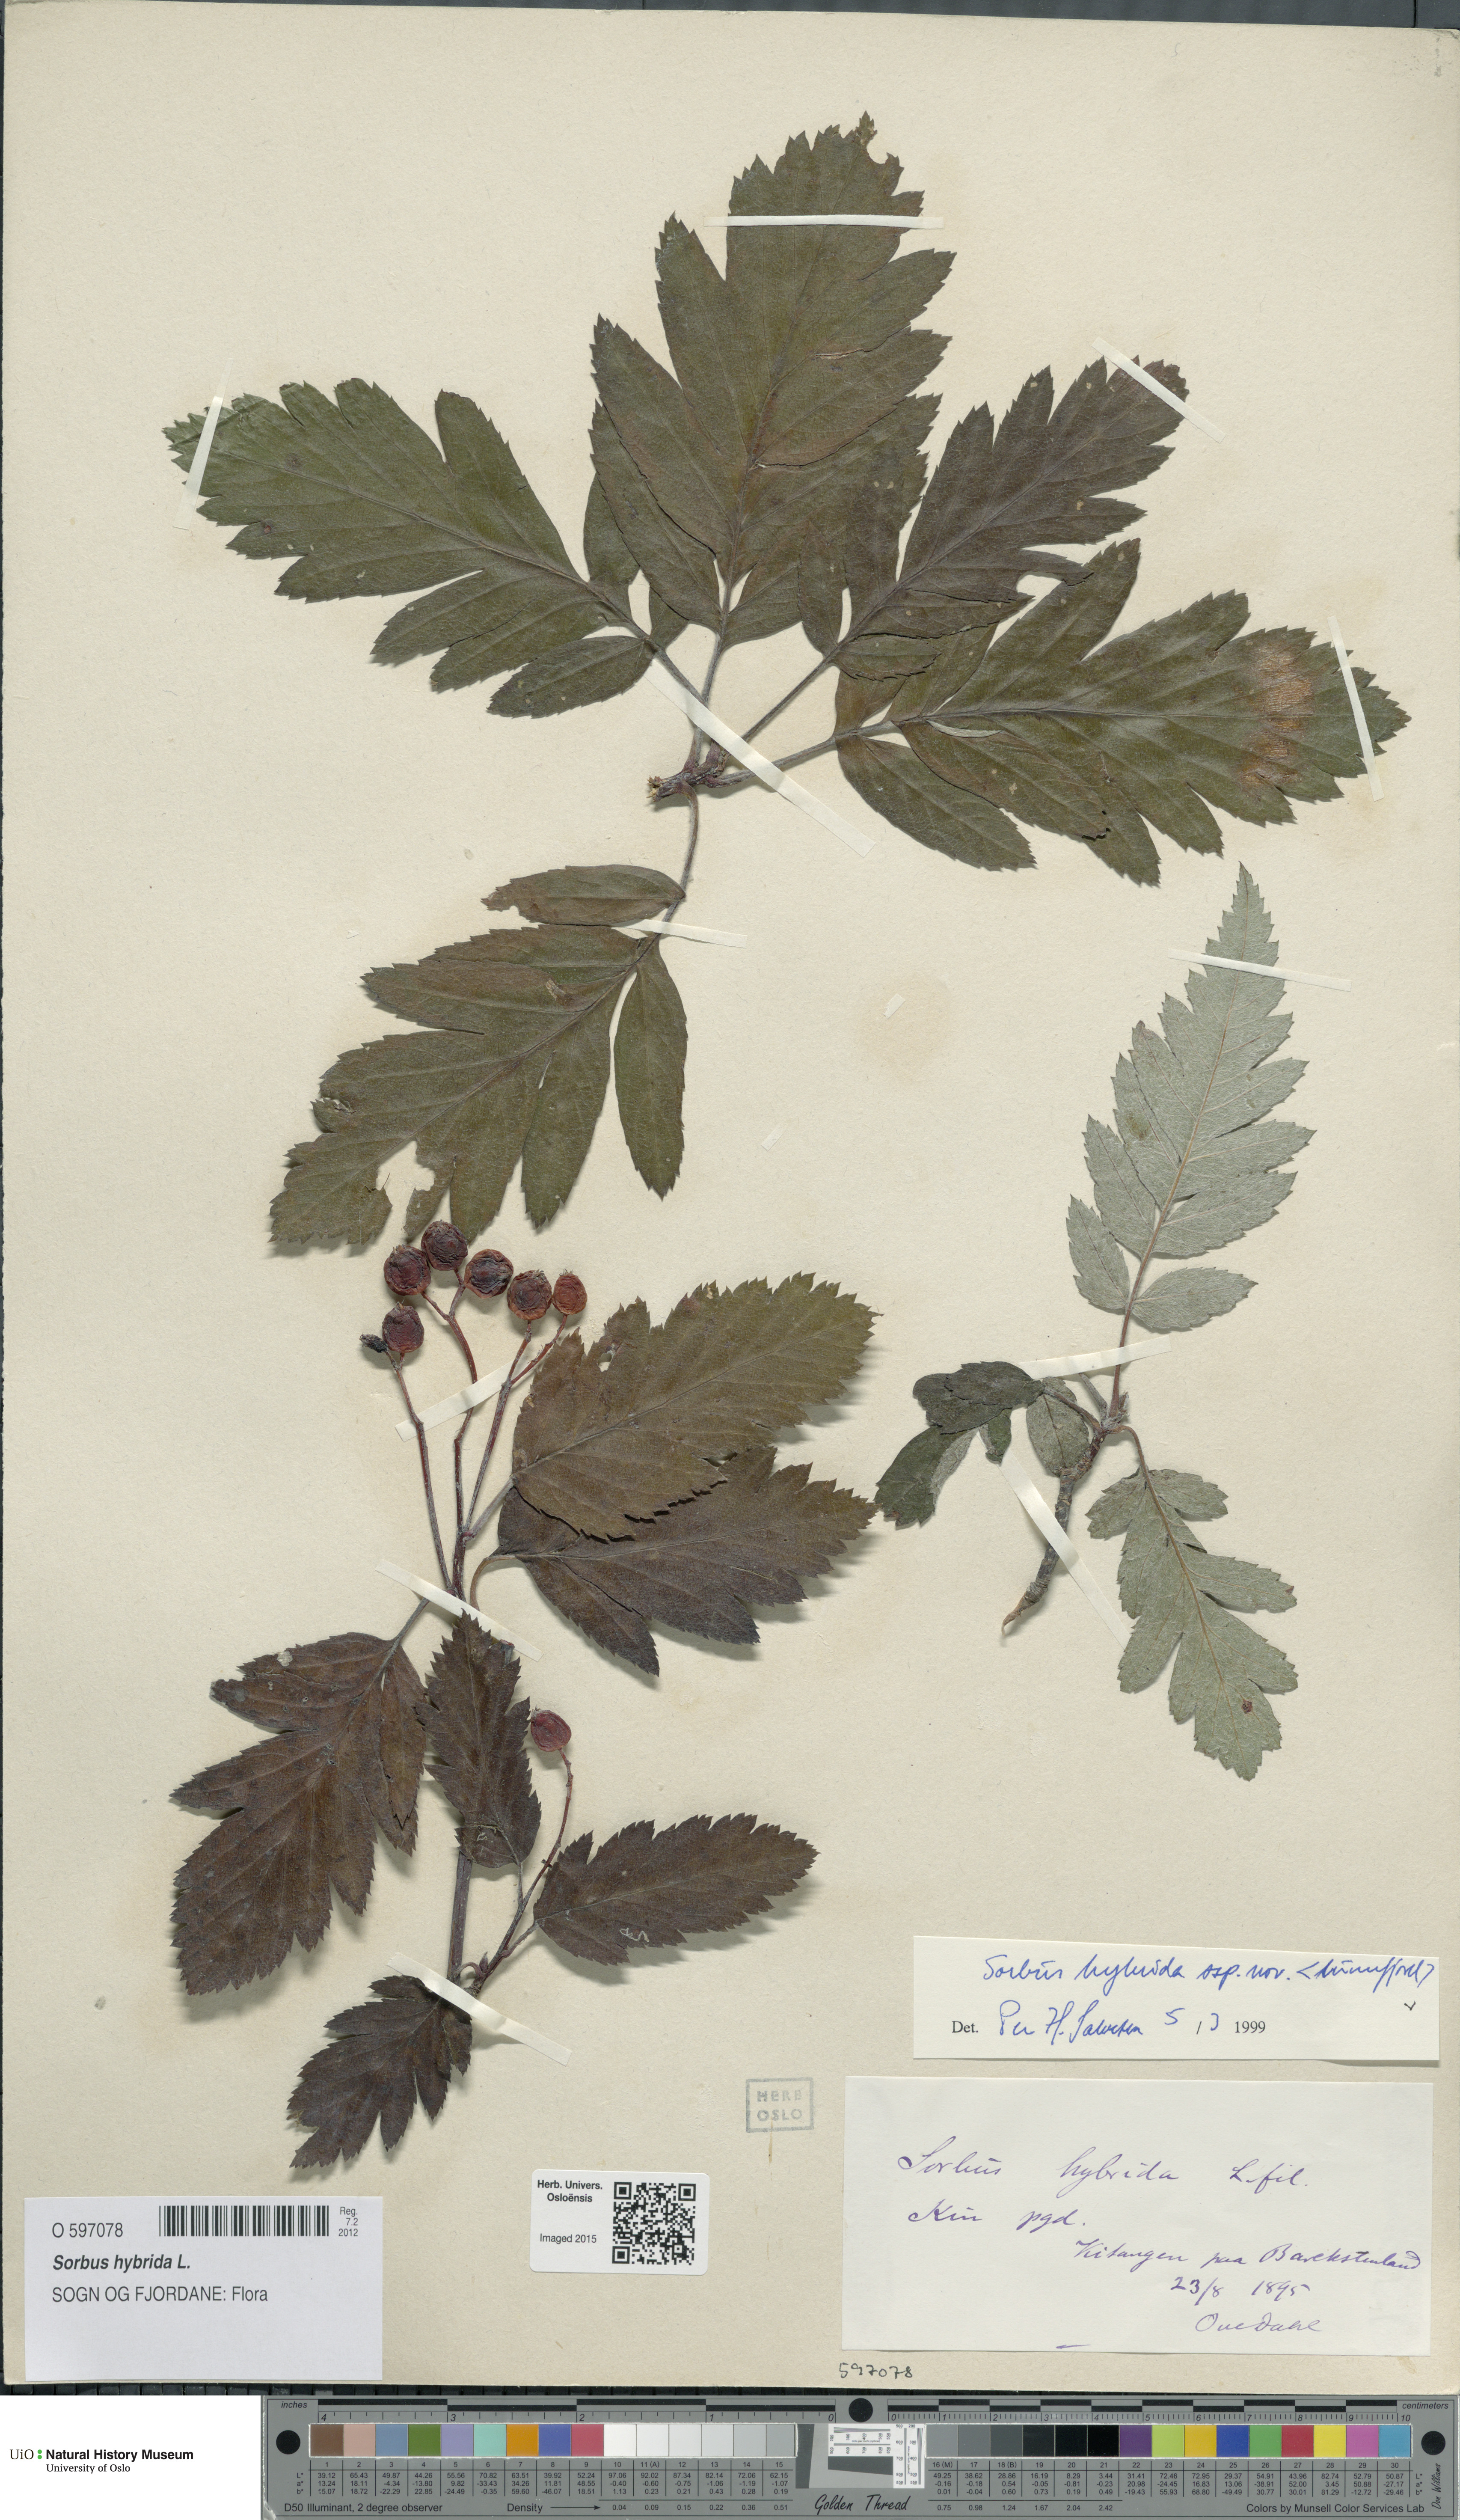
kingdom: Plantae
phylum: Tracheophyta
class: Magnoliopsida
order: Rosales
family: Rosaceae
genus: Hedlundia
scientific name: Hedlundia hybrida
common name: Swedish service-tree
